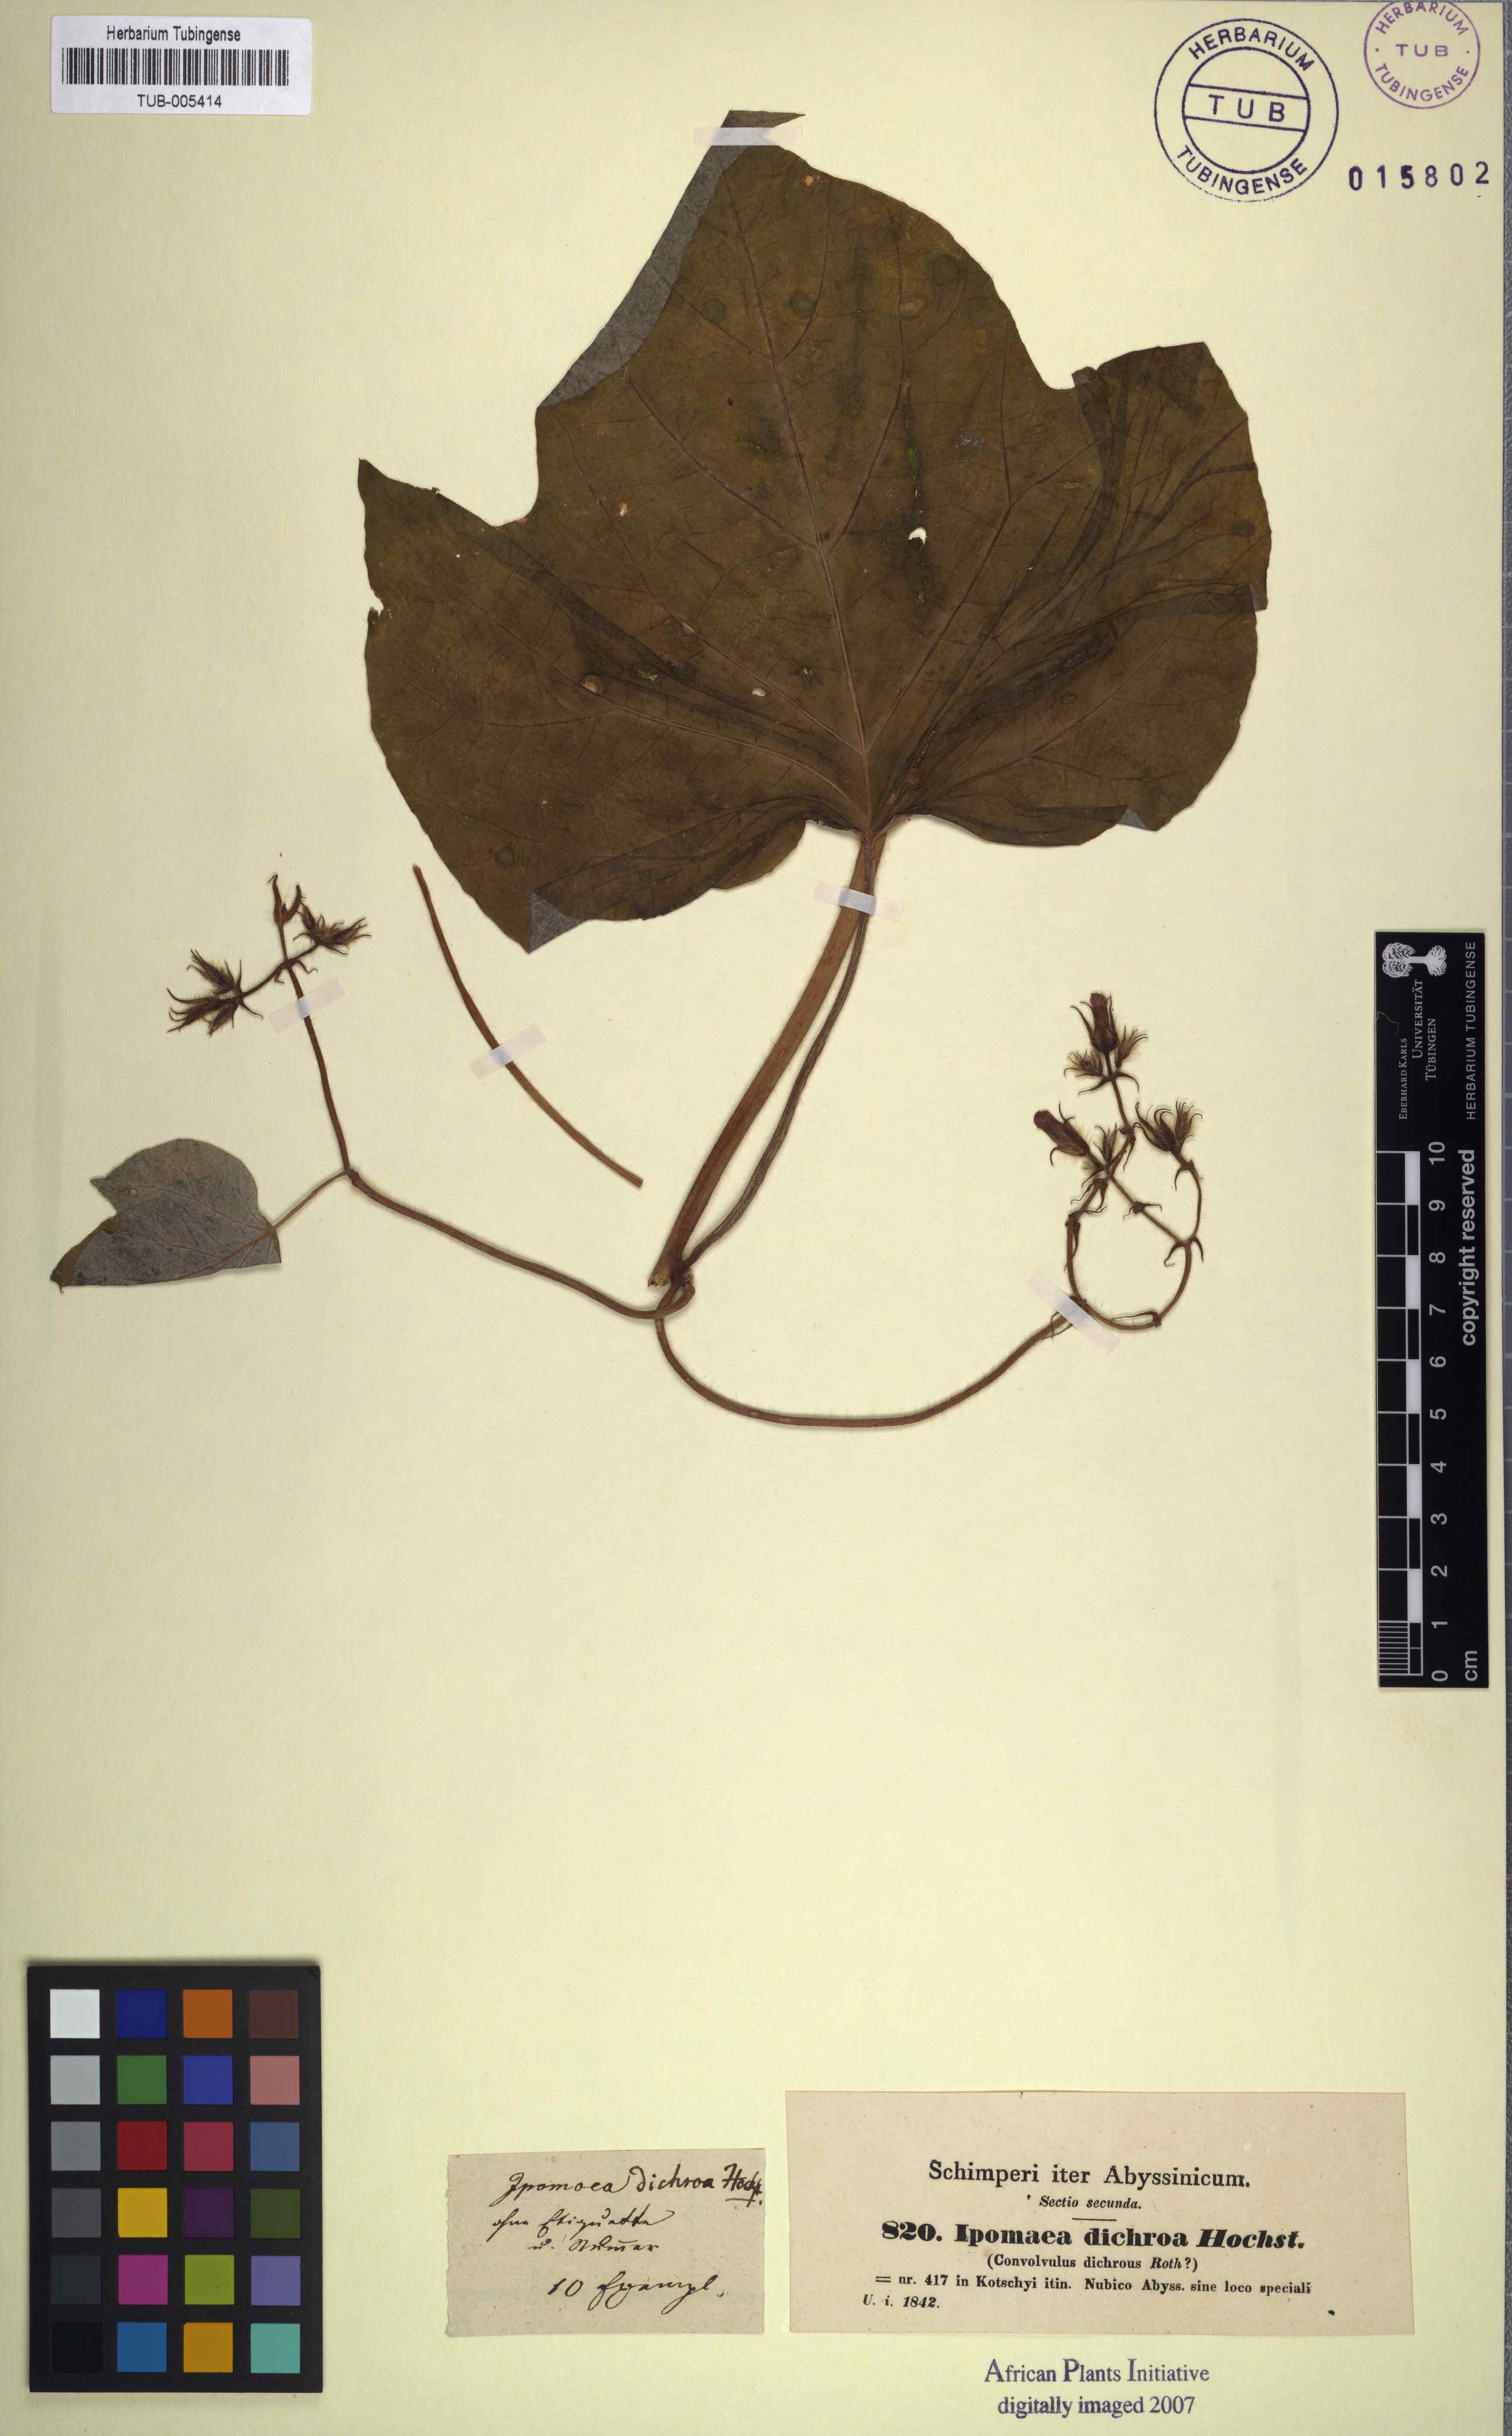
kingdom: Plantae
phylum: Tracheophyta
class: Magnoliopsida
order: Solanales
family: Convolvulaceae
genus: Ipomoea
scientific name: Ipomoea arachnosperma
